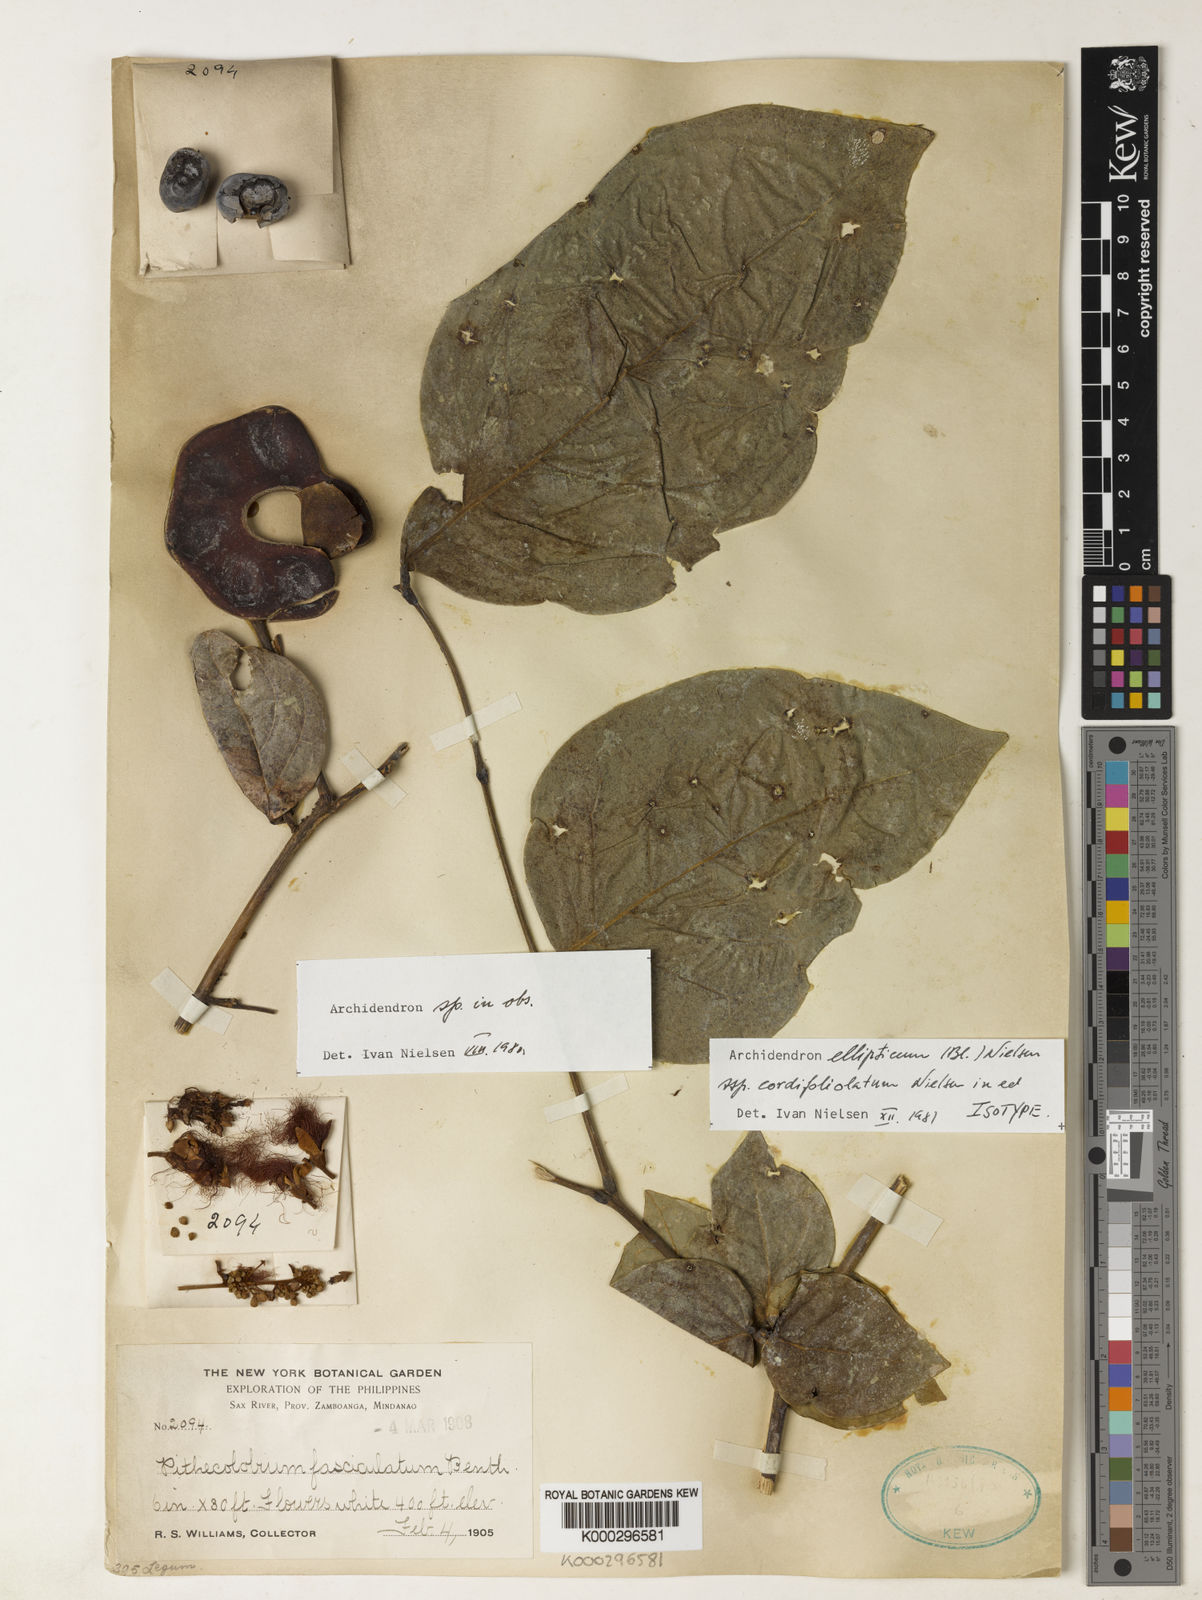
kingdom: Plantae
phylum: Tracheophyta
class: Magnoliopsida
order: Fabales
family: Fabaceae
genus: Archidendron
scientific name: Archidendron ellipticum
